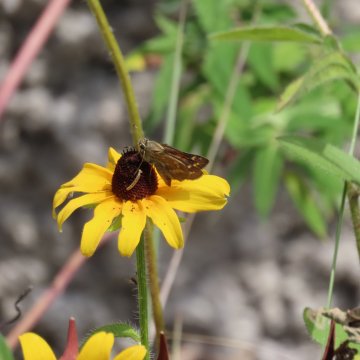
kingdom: Animalia
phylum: Arthropoda
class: Insecta
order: Lepidoptera
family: Hesperiidae
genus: Atalopedes
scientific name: Atalopedes campestris
